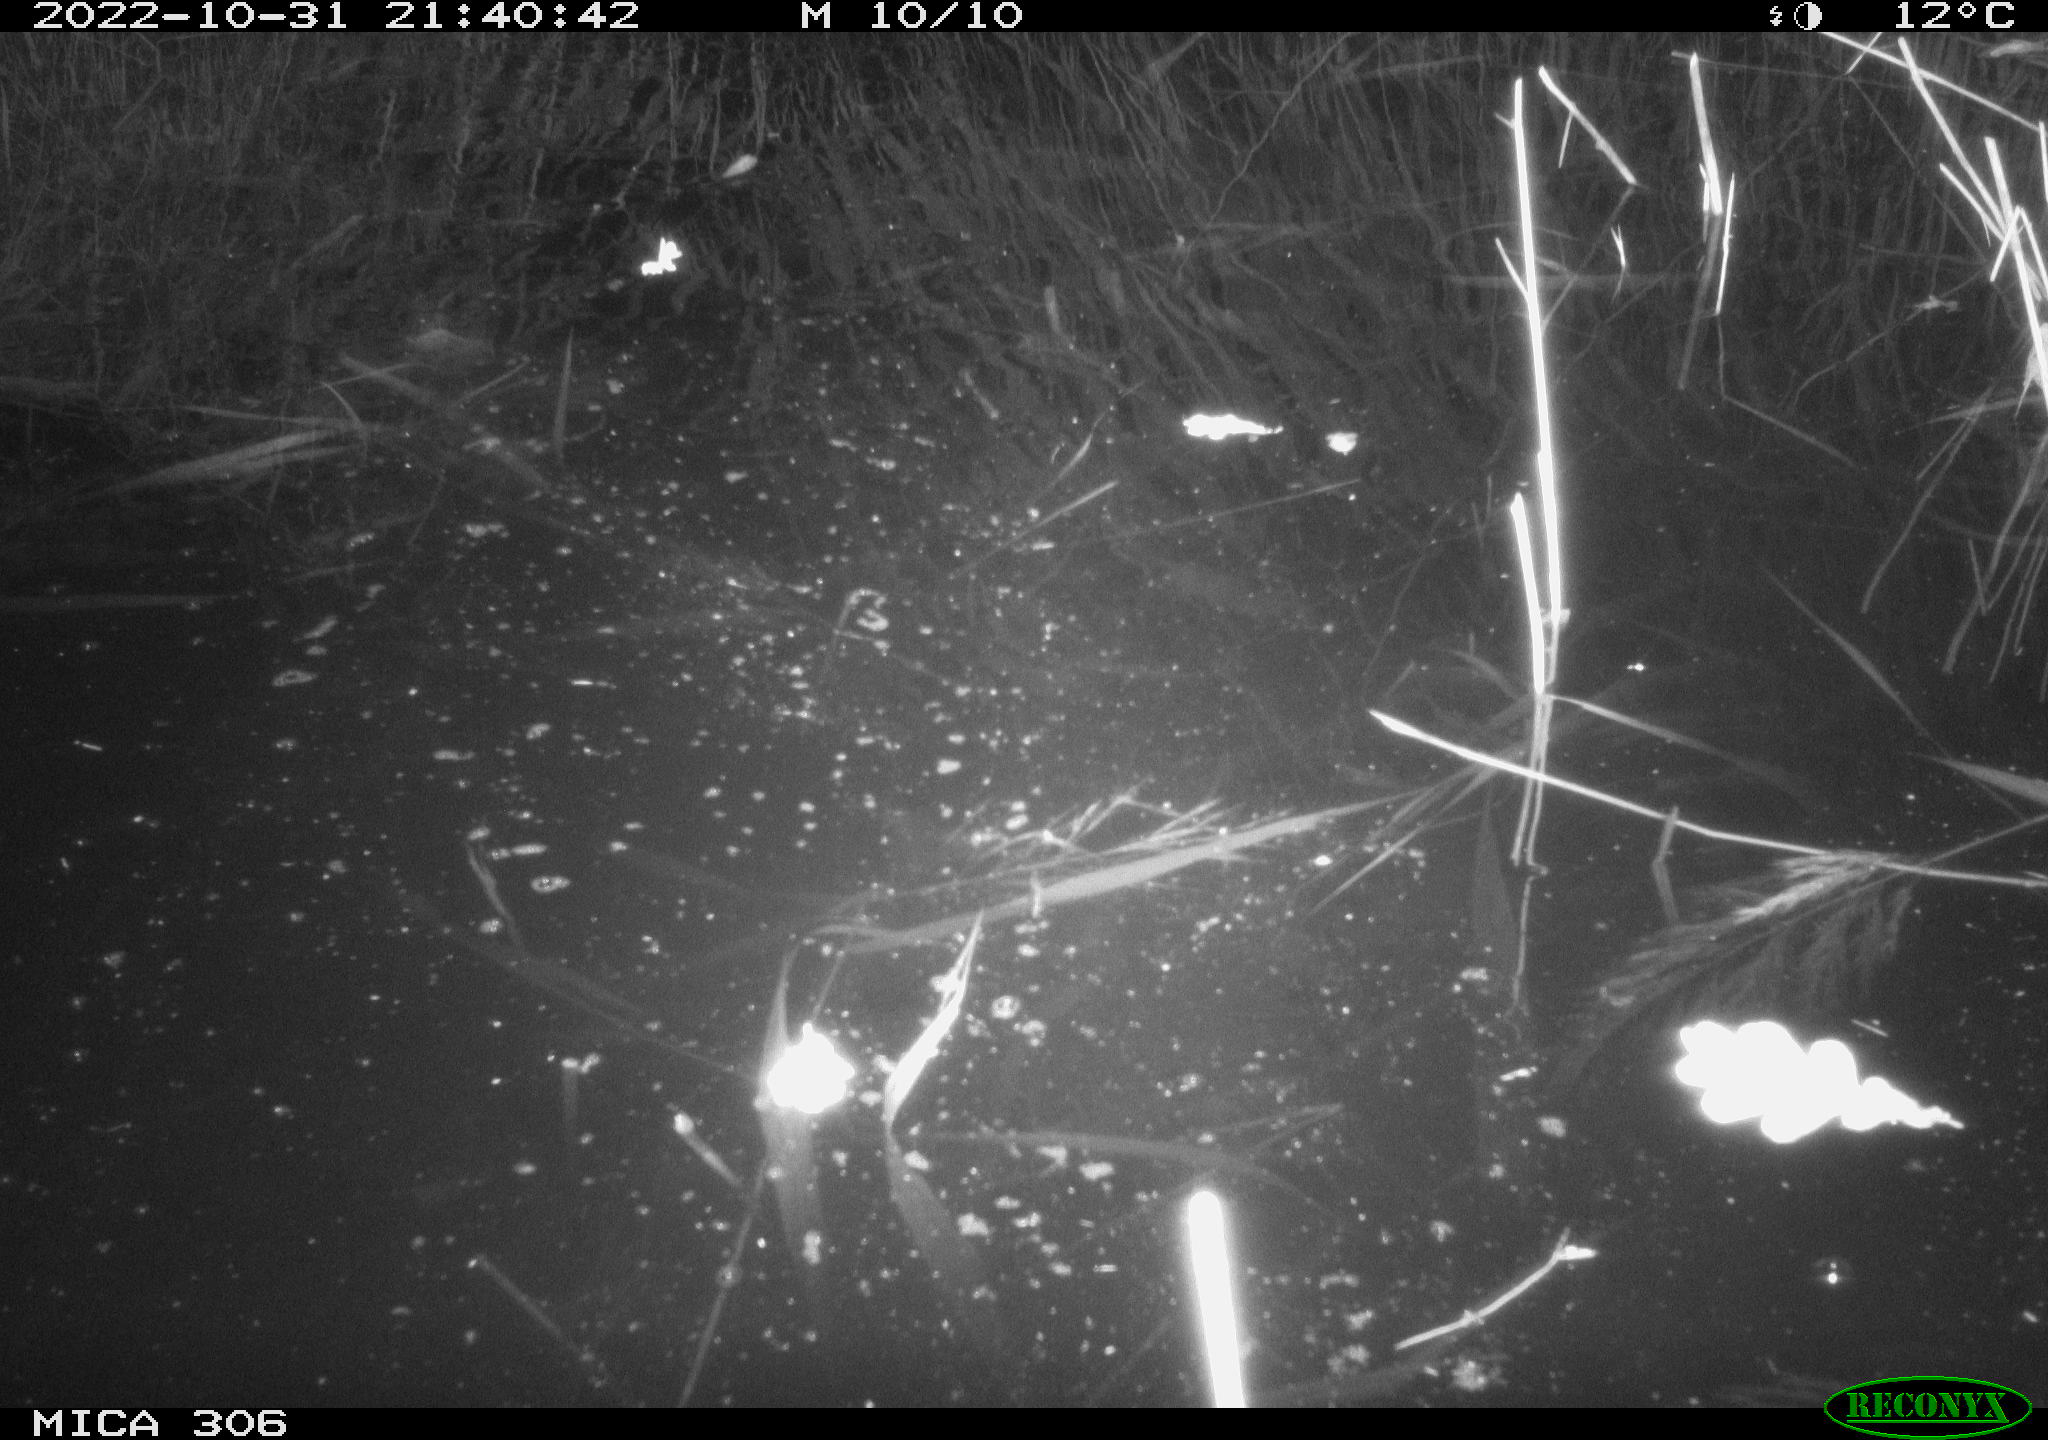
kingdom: Animalia
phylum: Chordata
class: Mammalia
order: Rodentia
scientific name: Rodentia
